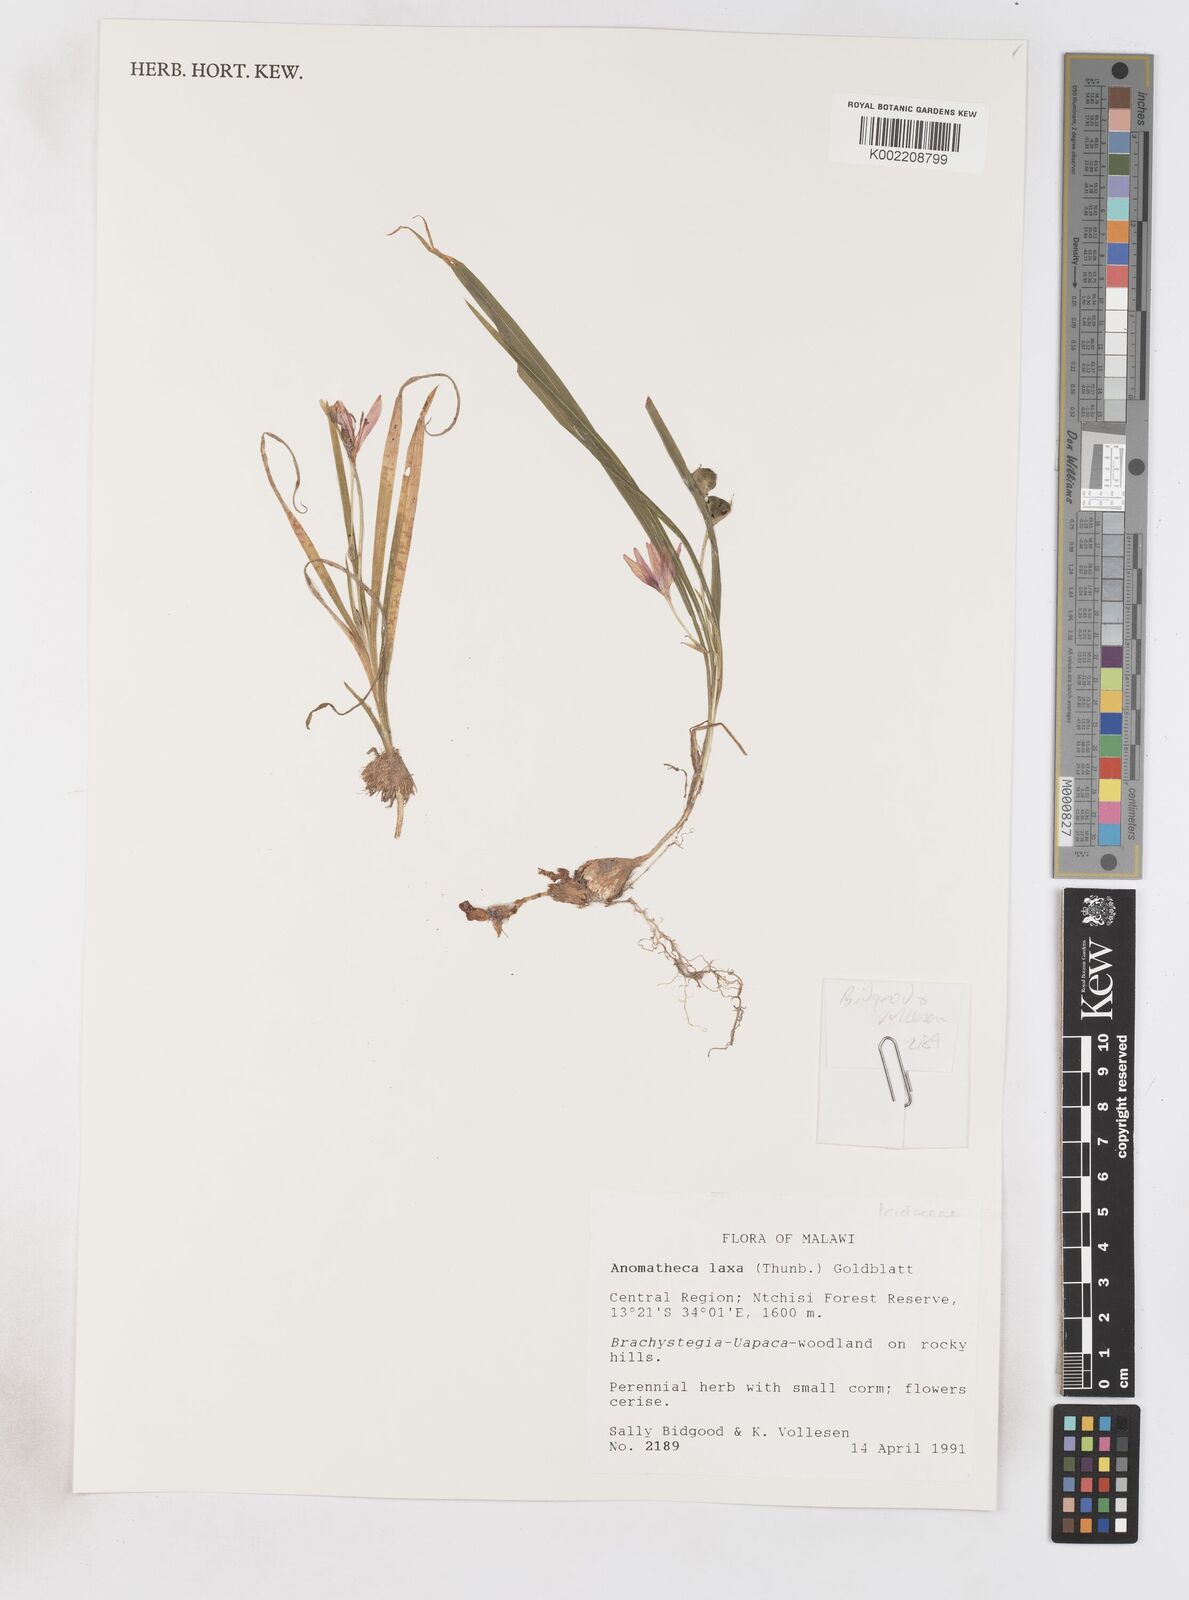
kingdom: Plantae
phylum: Tracheophyta
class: Liliopsida
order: Asparagales
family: Iridaceae
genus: Freesia
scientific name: Freesia laxa
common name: False freesia
